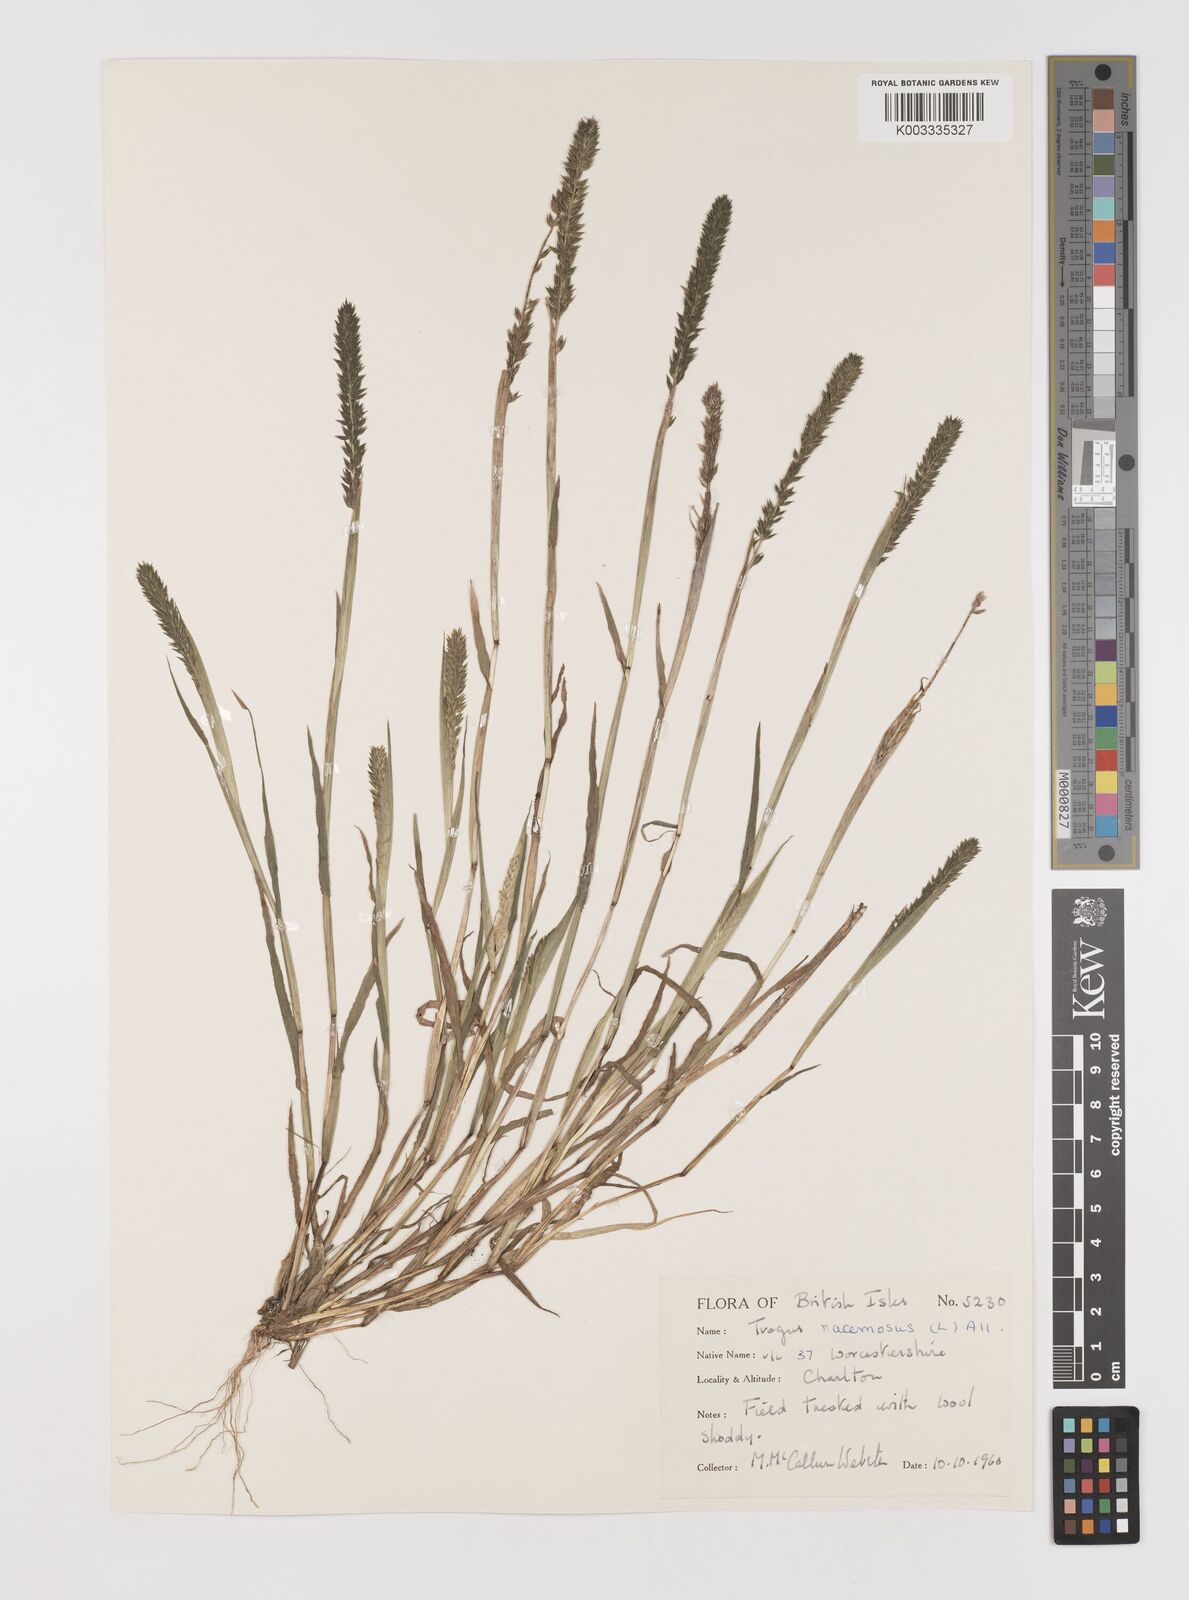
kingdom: Plantae
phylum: Tracheophyta
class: Liliopsida
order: Poales
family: Poaceae
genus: Tragus
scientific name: Tragus racemosus
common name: European bur-grass
